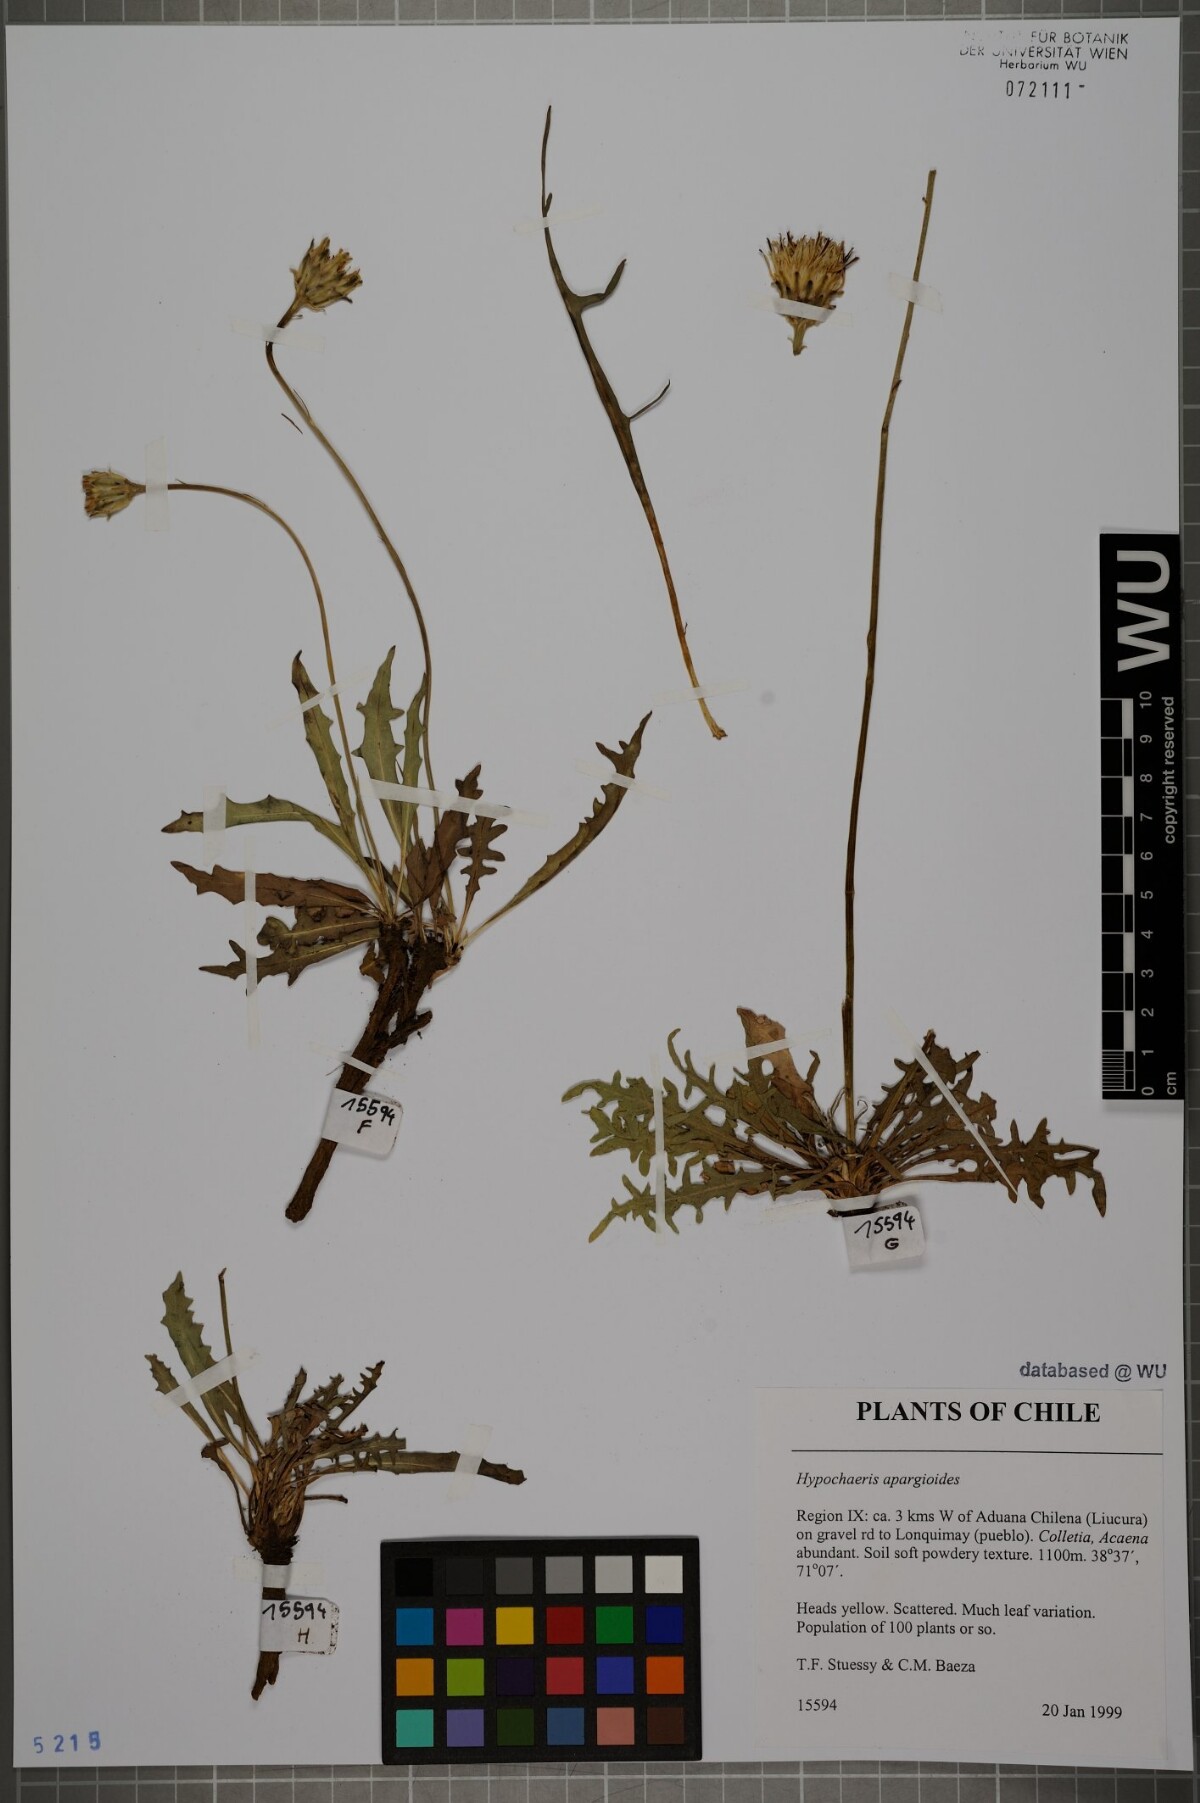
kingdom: Plantae
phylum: Tracheophyta
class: Magnoliopsida
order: Asterales
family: Asteraceae
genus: Hypochaeris
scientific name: Hypochaeris apargioides
